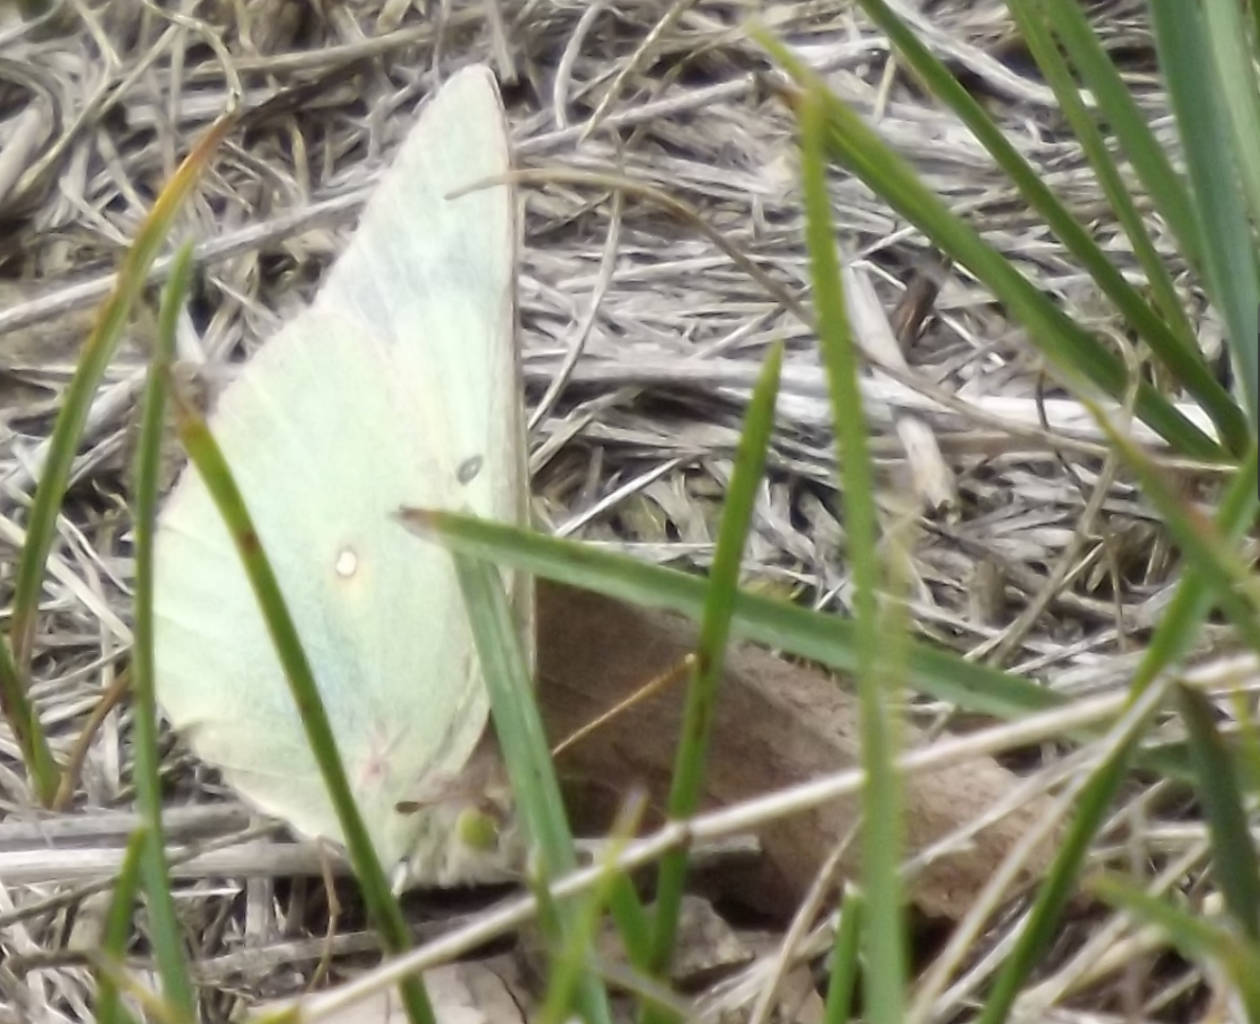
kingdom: Animalia
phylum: Arthropoda
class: Insecta
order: Lepidoptera
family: Pieridae
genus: Colias
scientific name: Colias philodice
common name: Clouded Sulphur
